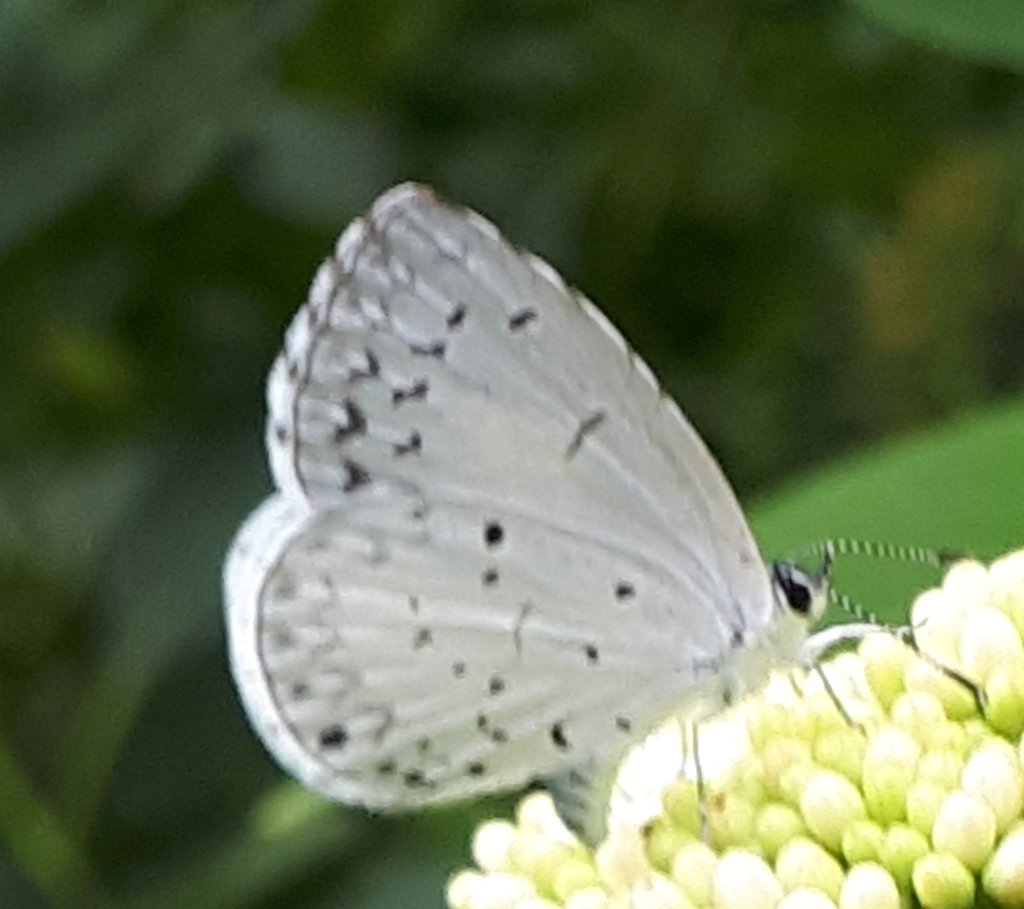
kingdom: Animalia
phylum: Arthropoda
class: Insecta
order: Lepidoptera
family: Lycaenidae
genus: Cyaniris
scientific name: Cyaniris neglecta
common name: Summer Azure
